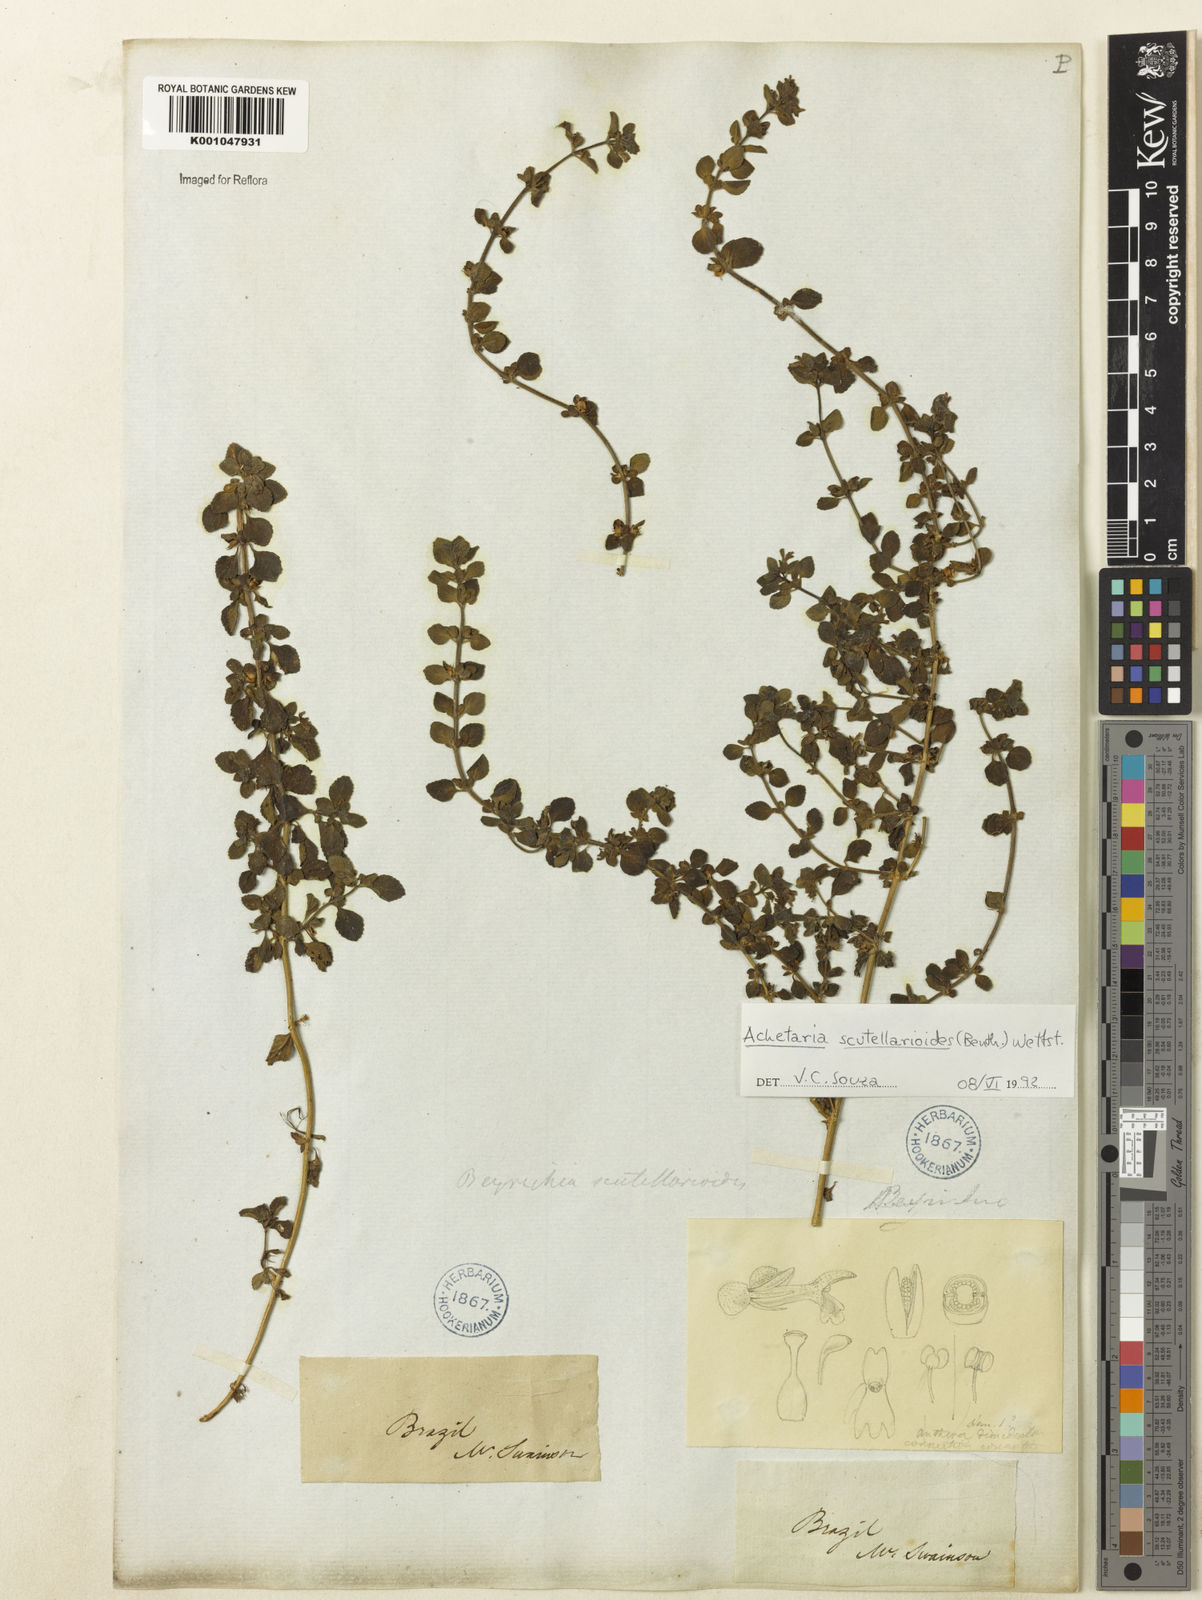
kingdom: Plantae
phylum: Tracheophyta
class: Magnoliopsida
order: Lamiales
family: Plantaginaceae
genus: Matourea
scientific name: Matourea scutellarioides
